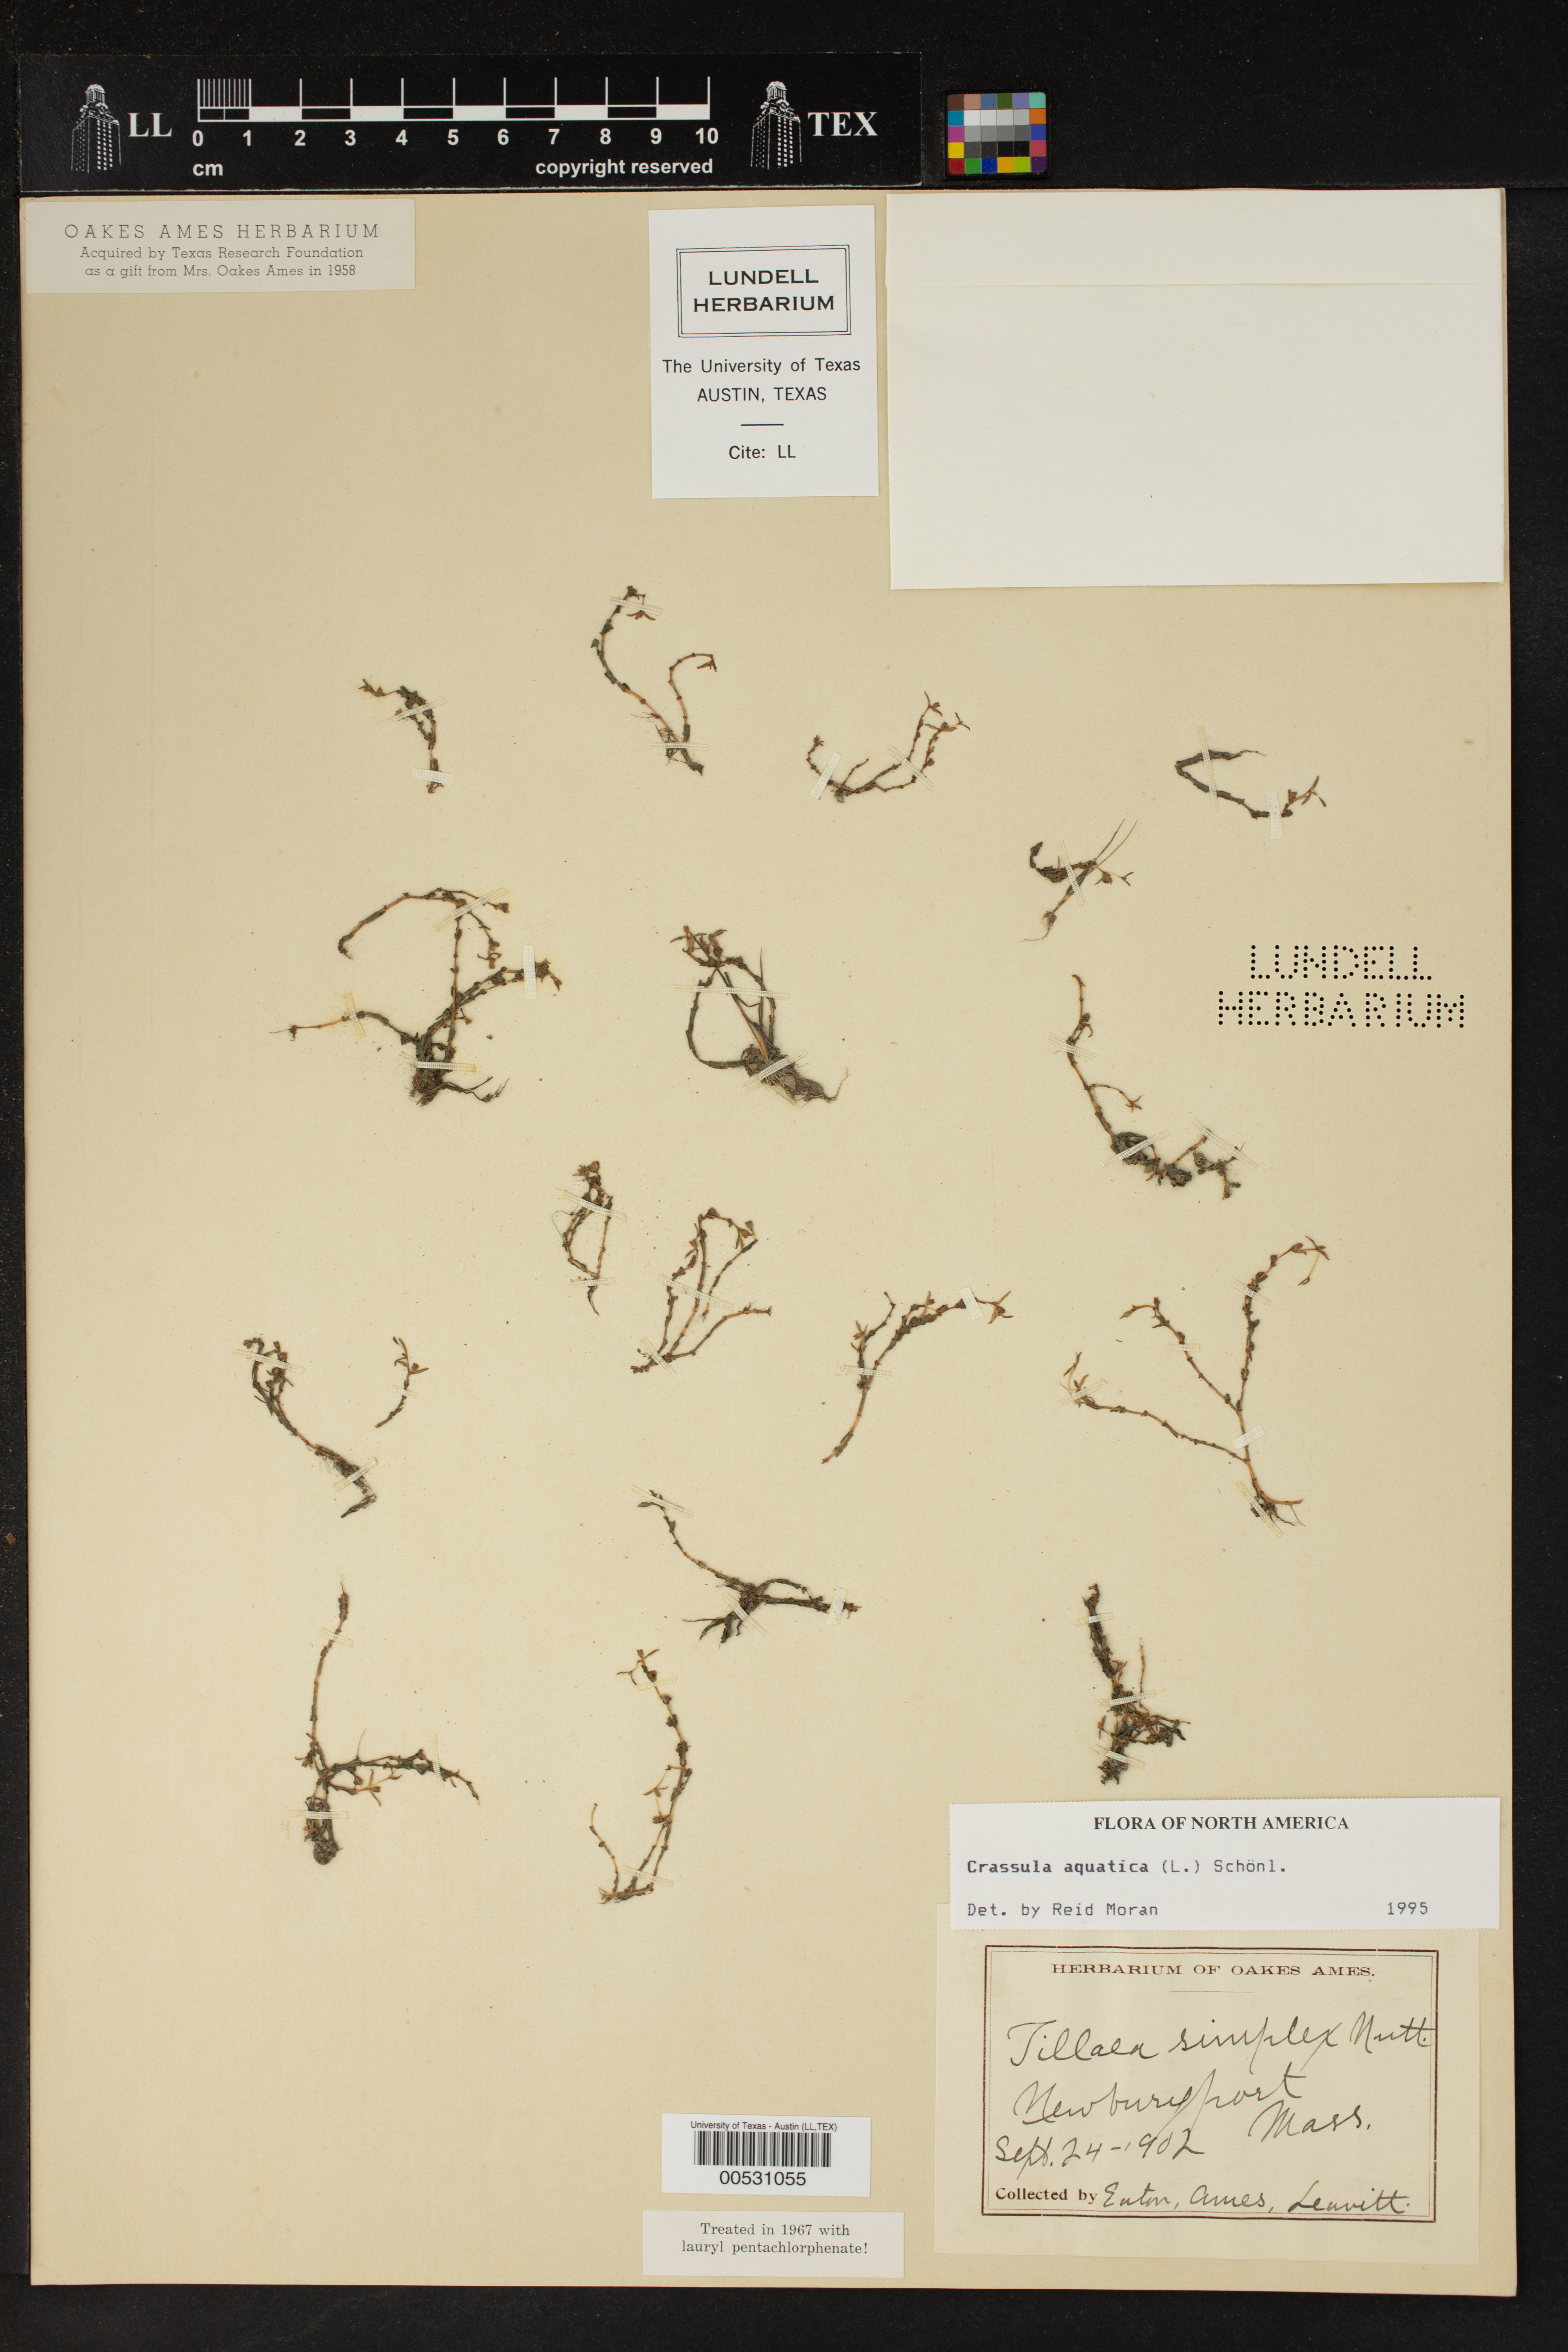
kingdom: Plantae
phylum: Tracheophyta
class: Magnoliopsida
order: Saxifragales
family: Crassulaceae
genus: Crassula
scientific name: Crassula aquatica
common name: Pigmyweed
